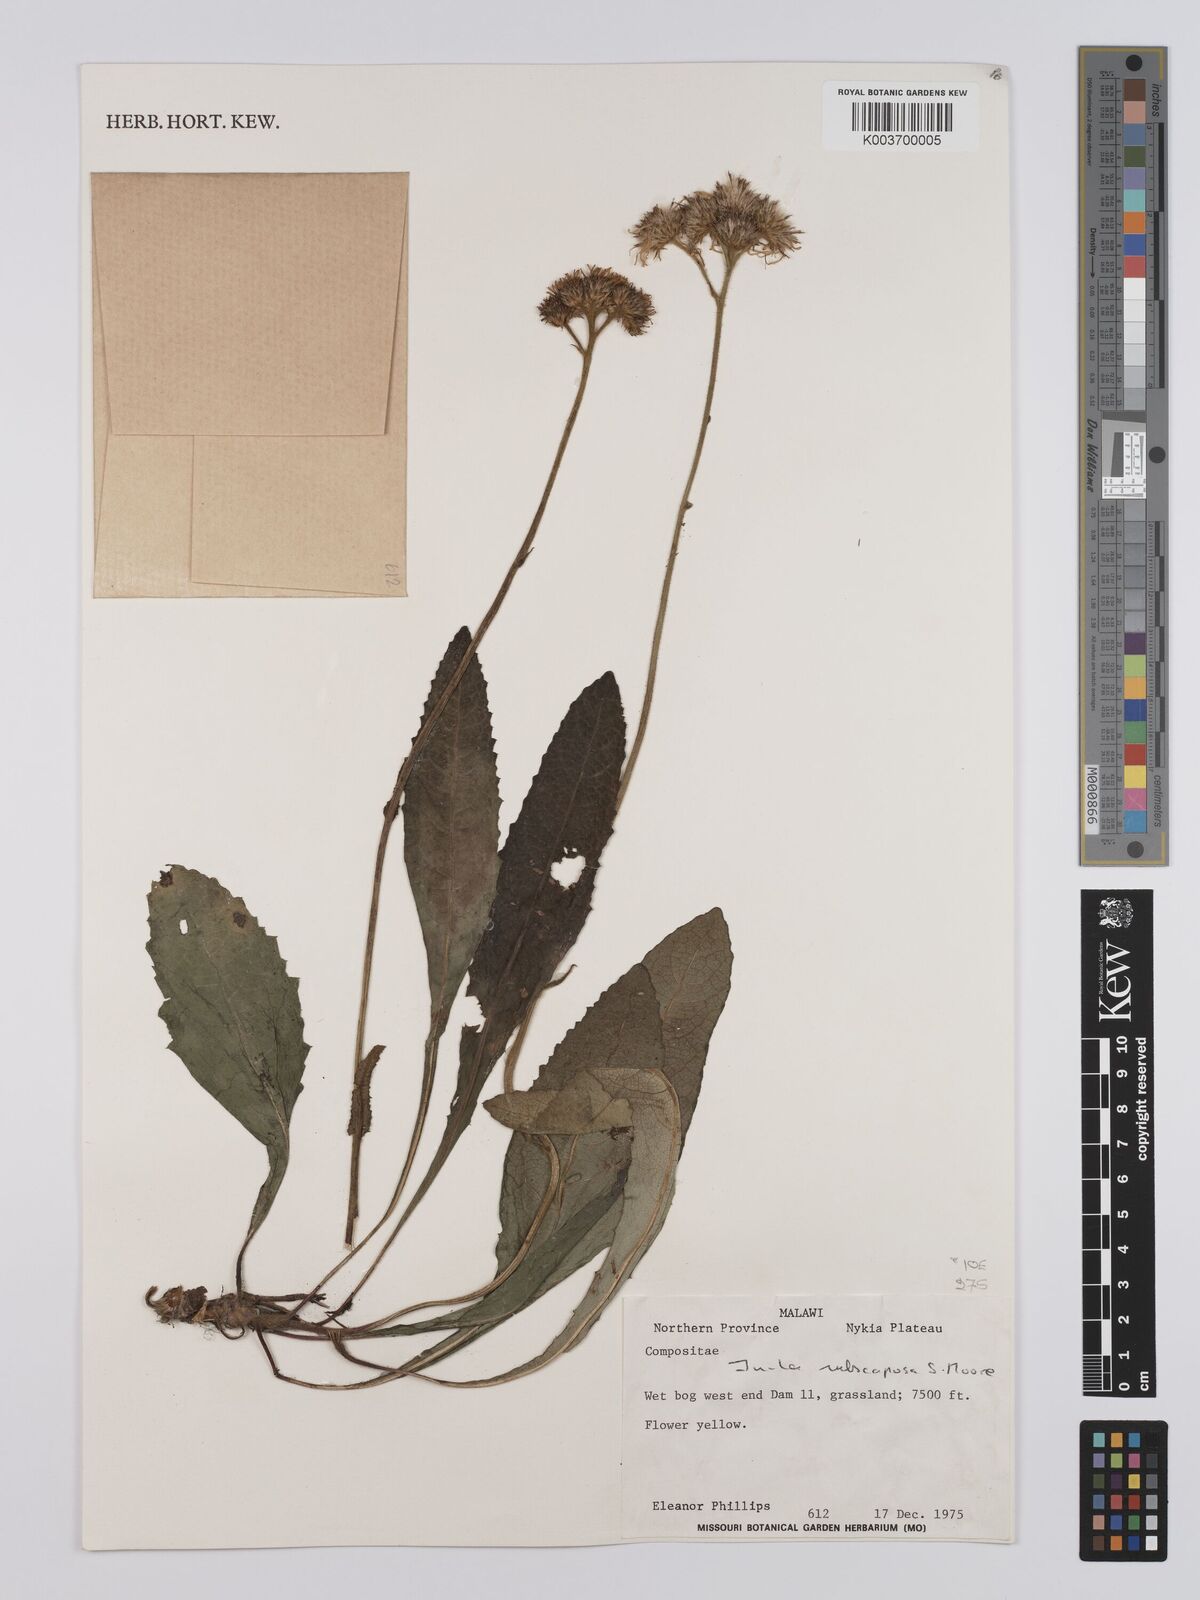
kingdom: Plantae
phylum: Tracheophyta
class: Magnoliopsida
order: Asterales
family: Asteraceae
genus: Monactinocephalus
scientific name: Monactinocephalus paniculatus
